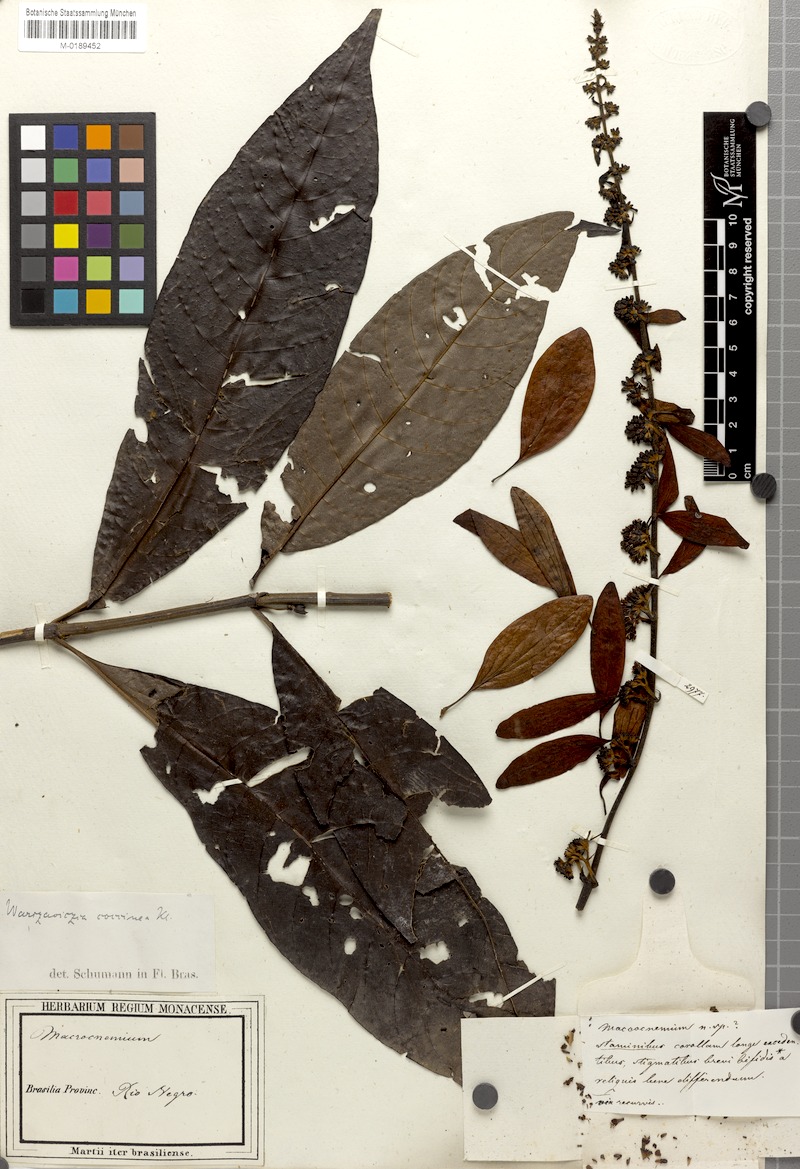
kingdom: Plantae
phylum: Tracheophyta
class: Magnoliopsida
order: Gentianales
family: Rubiaceae
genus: Warszewiczia
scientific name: Warszewiczia coccinea
